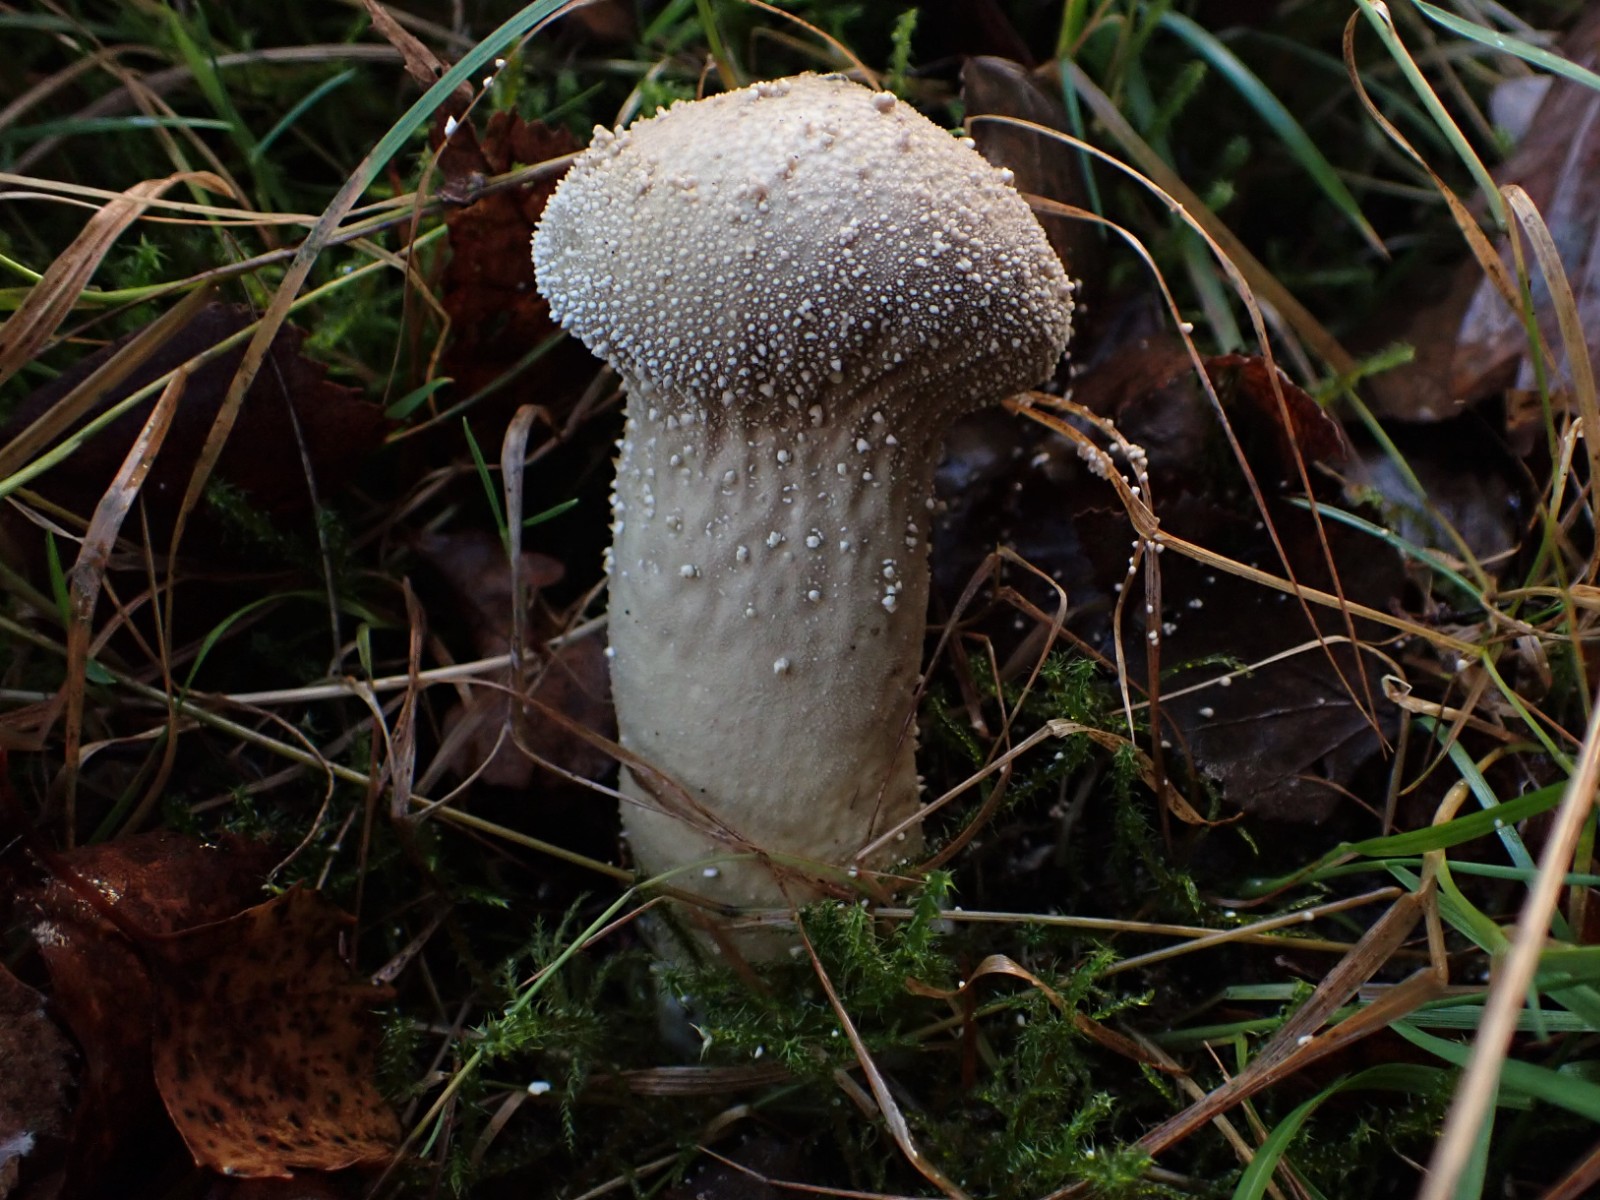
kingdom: Fungi
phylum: Basidiomycota
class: Agaricomycetes
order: Agaricales
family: Lycoperdaceae
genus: Lycoperdon
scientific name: Lycoperdon perlatum
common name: krystal-støvbold
